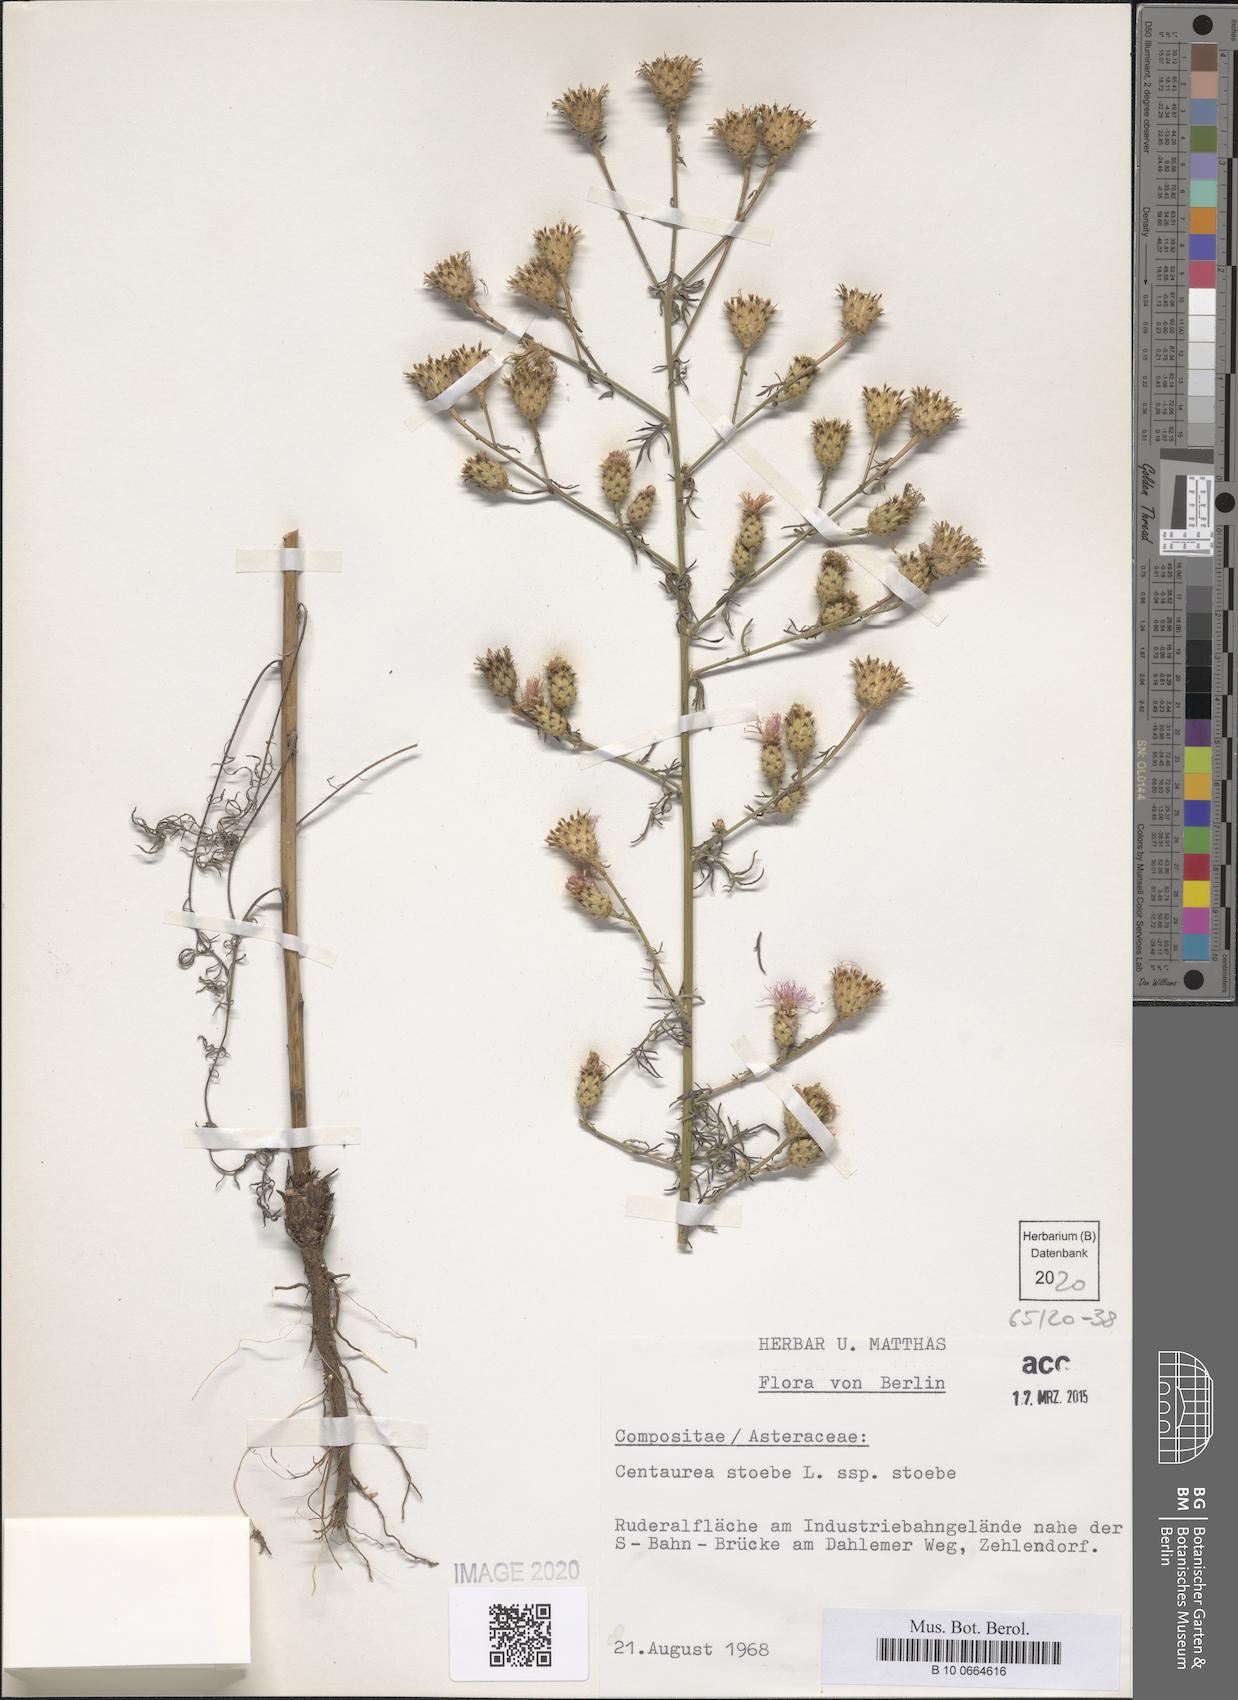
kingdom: Plantae
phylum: Tracheophyta
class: Magnoliopsida
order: Asterales
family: Asteraceae
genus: Centaurea
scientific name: Centaurea stoebe
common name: Spotted knapweed
